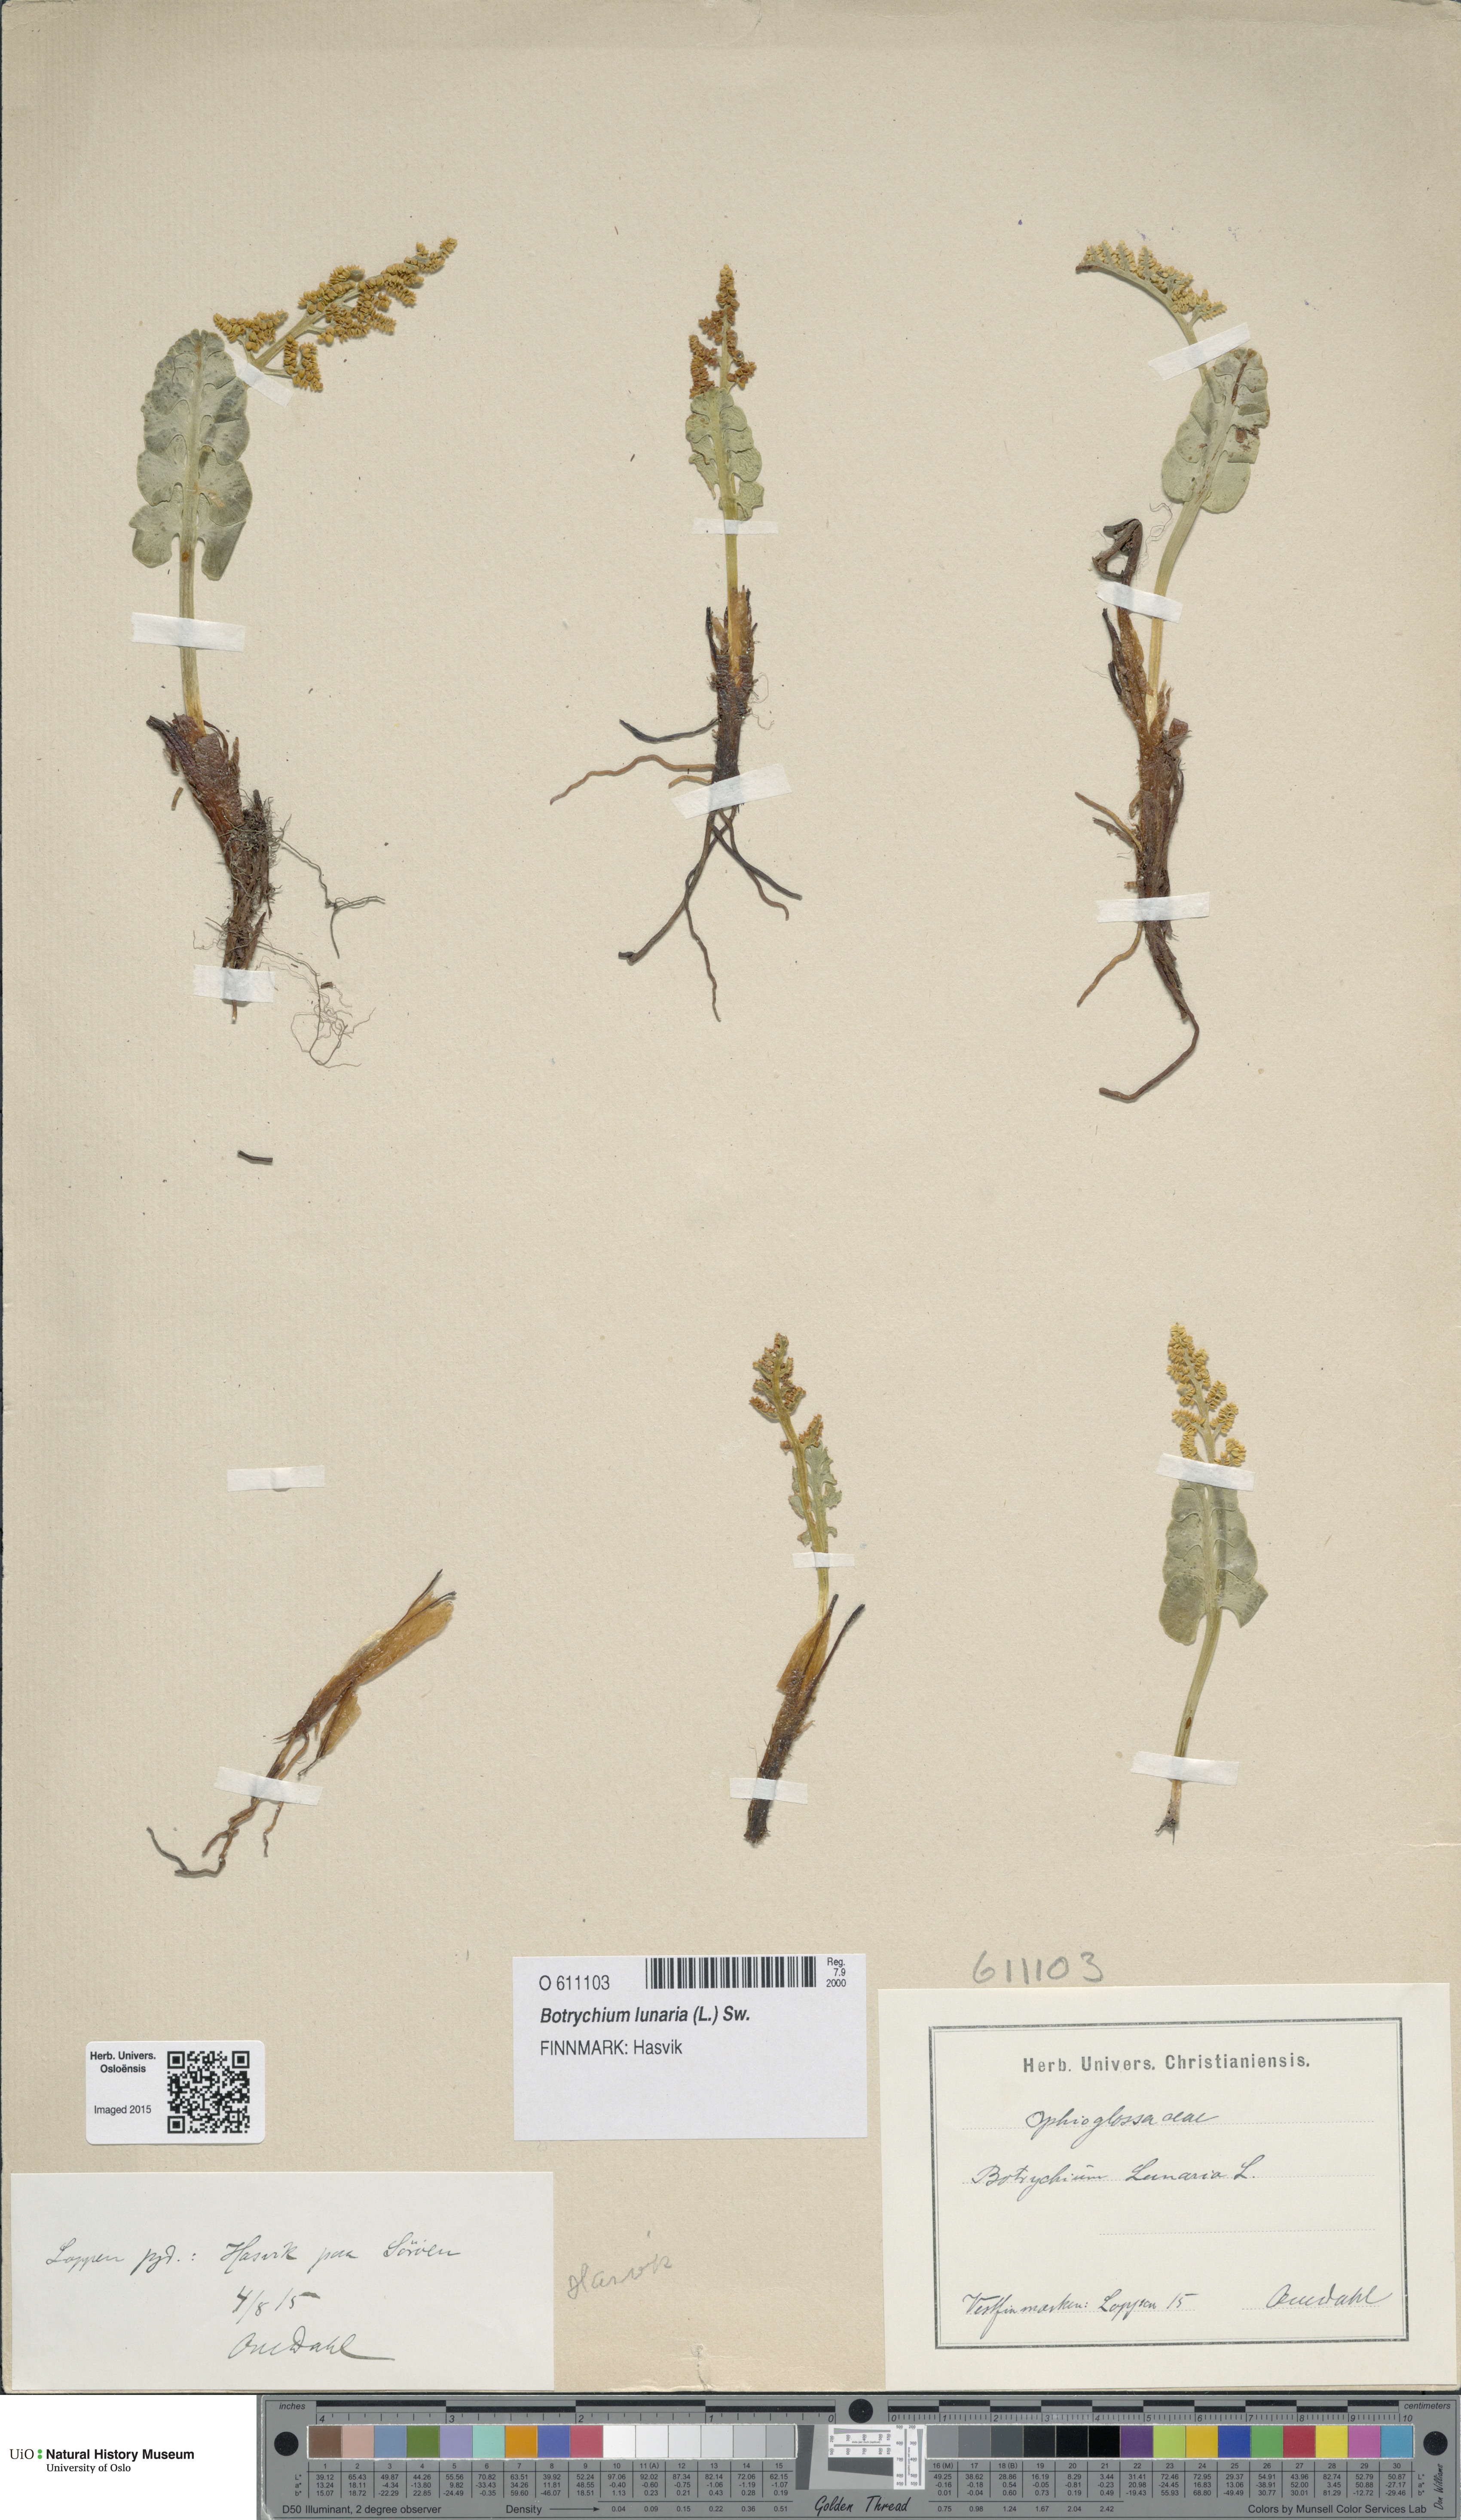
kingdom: Plantae
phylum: Tracheophyta
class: Polypodiopsida
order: Ophioglossales
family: Ophioglossaceae
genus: Botrychium
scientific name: Botrychium lunaria
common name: Moonwort
